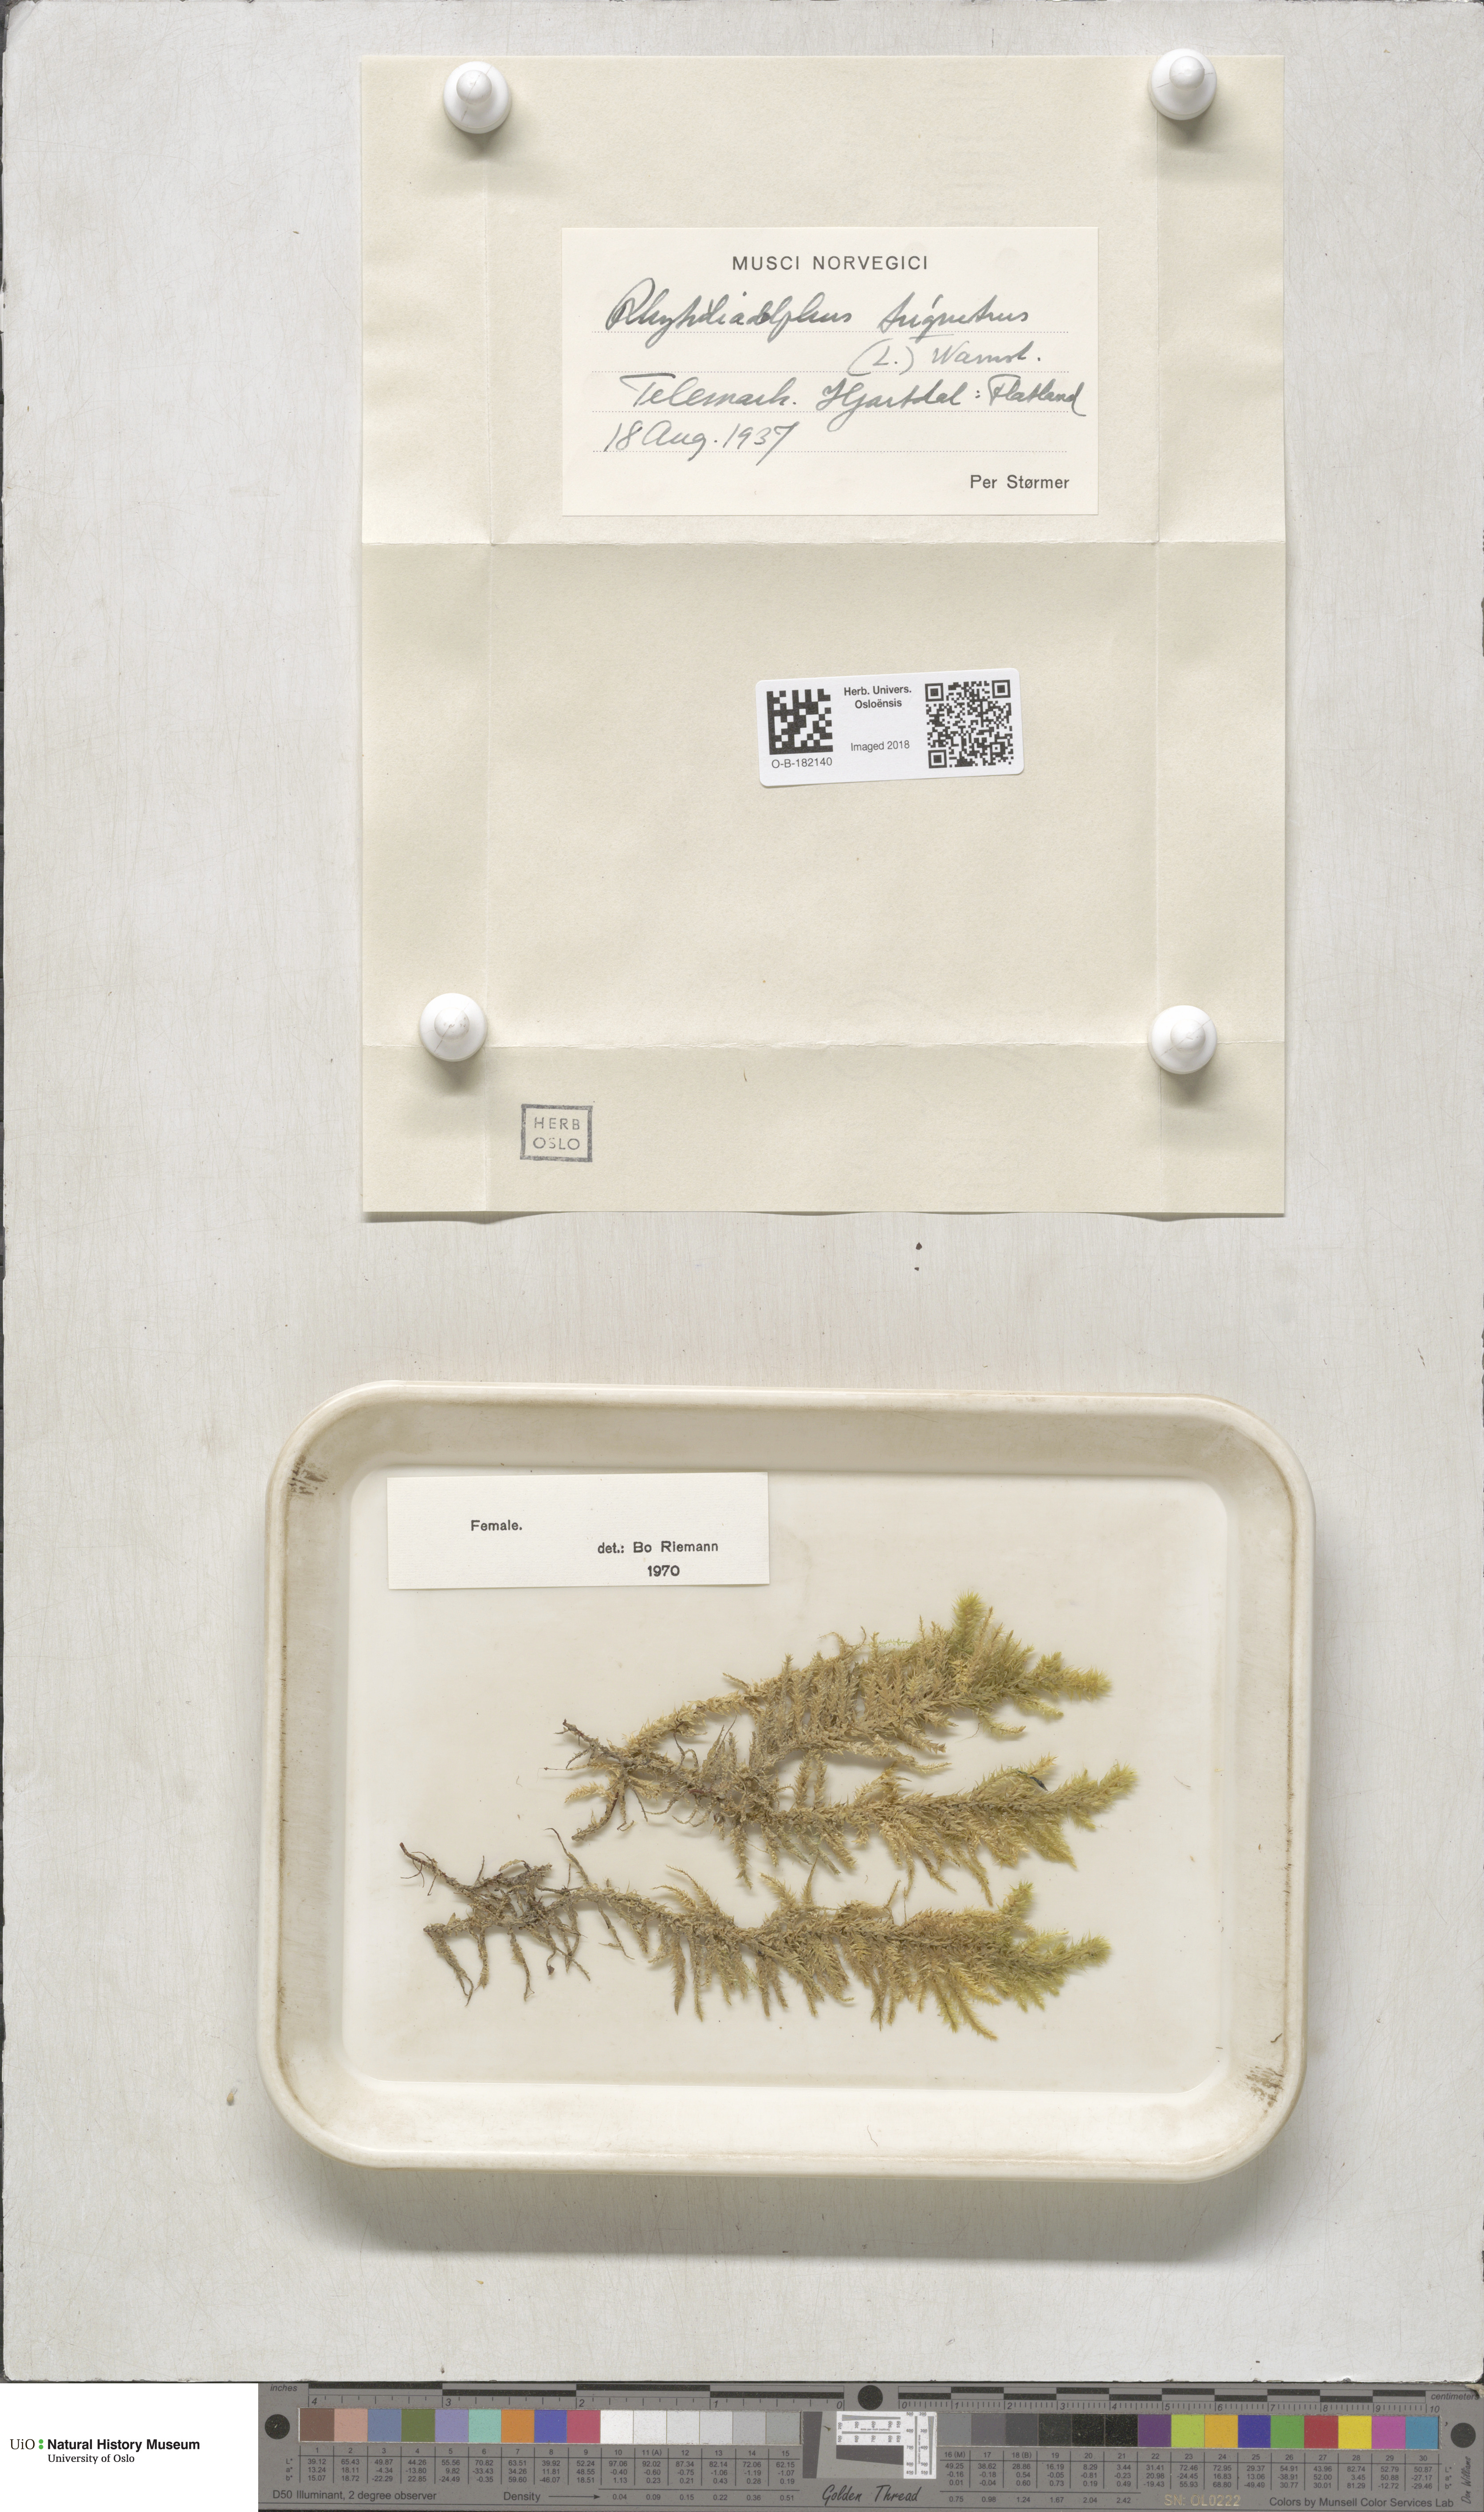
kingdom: Plantae
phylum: Bryophyta
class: Bryopsida
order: Hypnales
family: Hylocomiaceae
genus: Hylocomiadelphus
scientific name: Hylocomiadelphus triquetrus
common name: Rough goose neck moss
